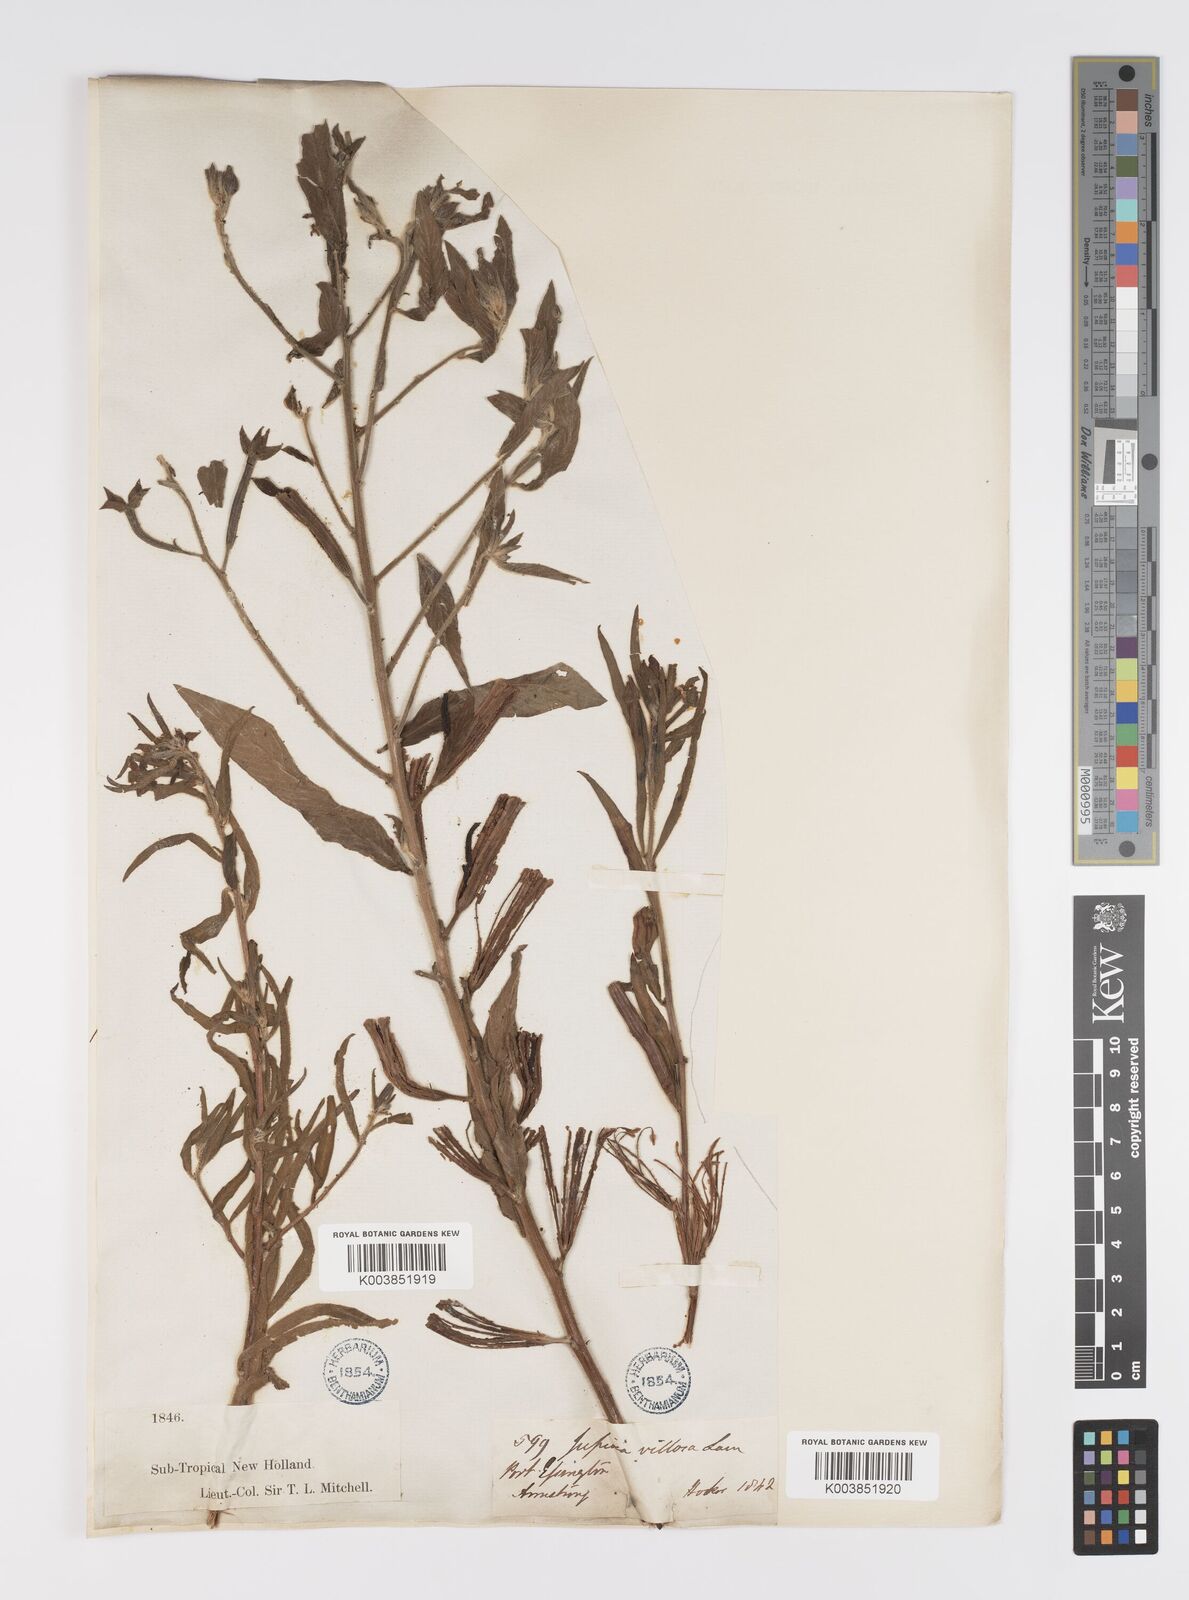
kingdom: Plantae
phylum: Tracheophyta
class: Magnoliopsida
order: Myrtales
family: Onagraceae
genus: Ludwigia
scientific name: Ludwigia octovalvis
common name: Water-primrose
